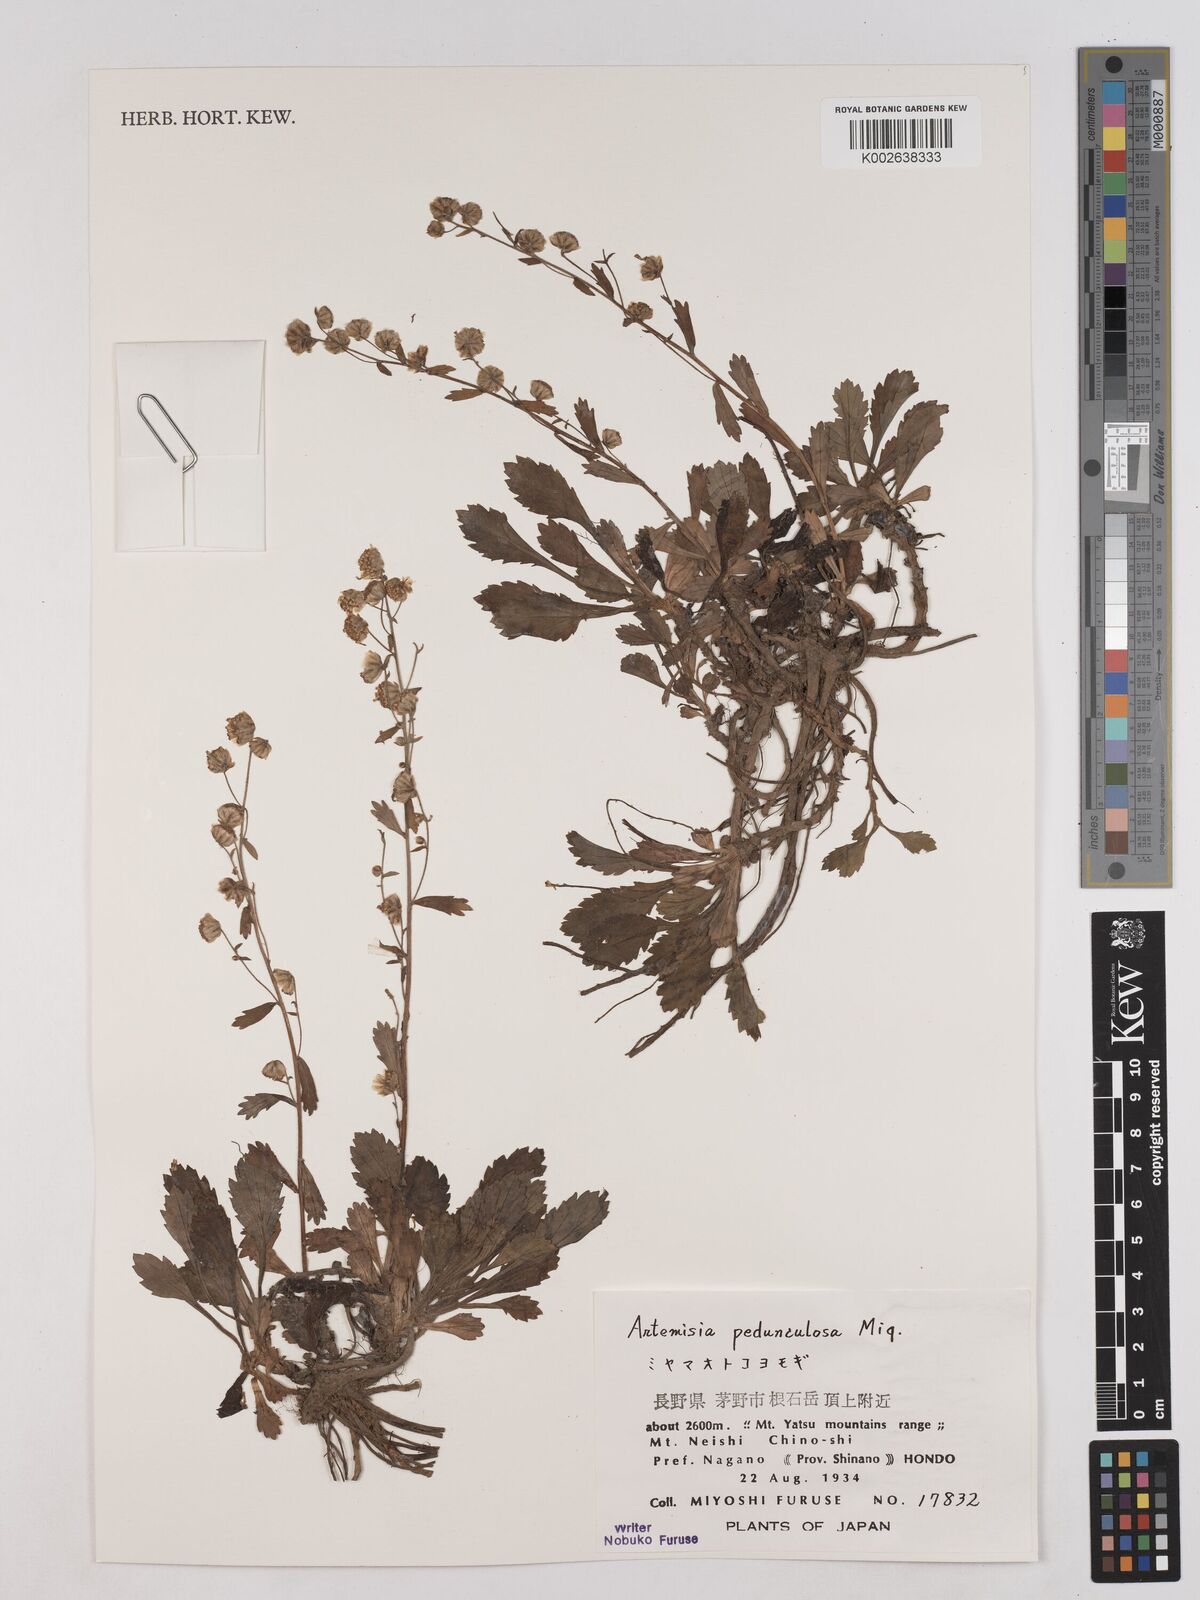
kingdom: Plantae
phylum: Tracheophyta
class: Magnoliopsida
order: Asterales
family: Asteraceae
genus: Artemisia
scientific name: Artemisia pedunculosa
